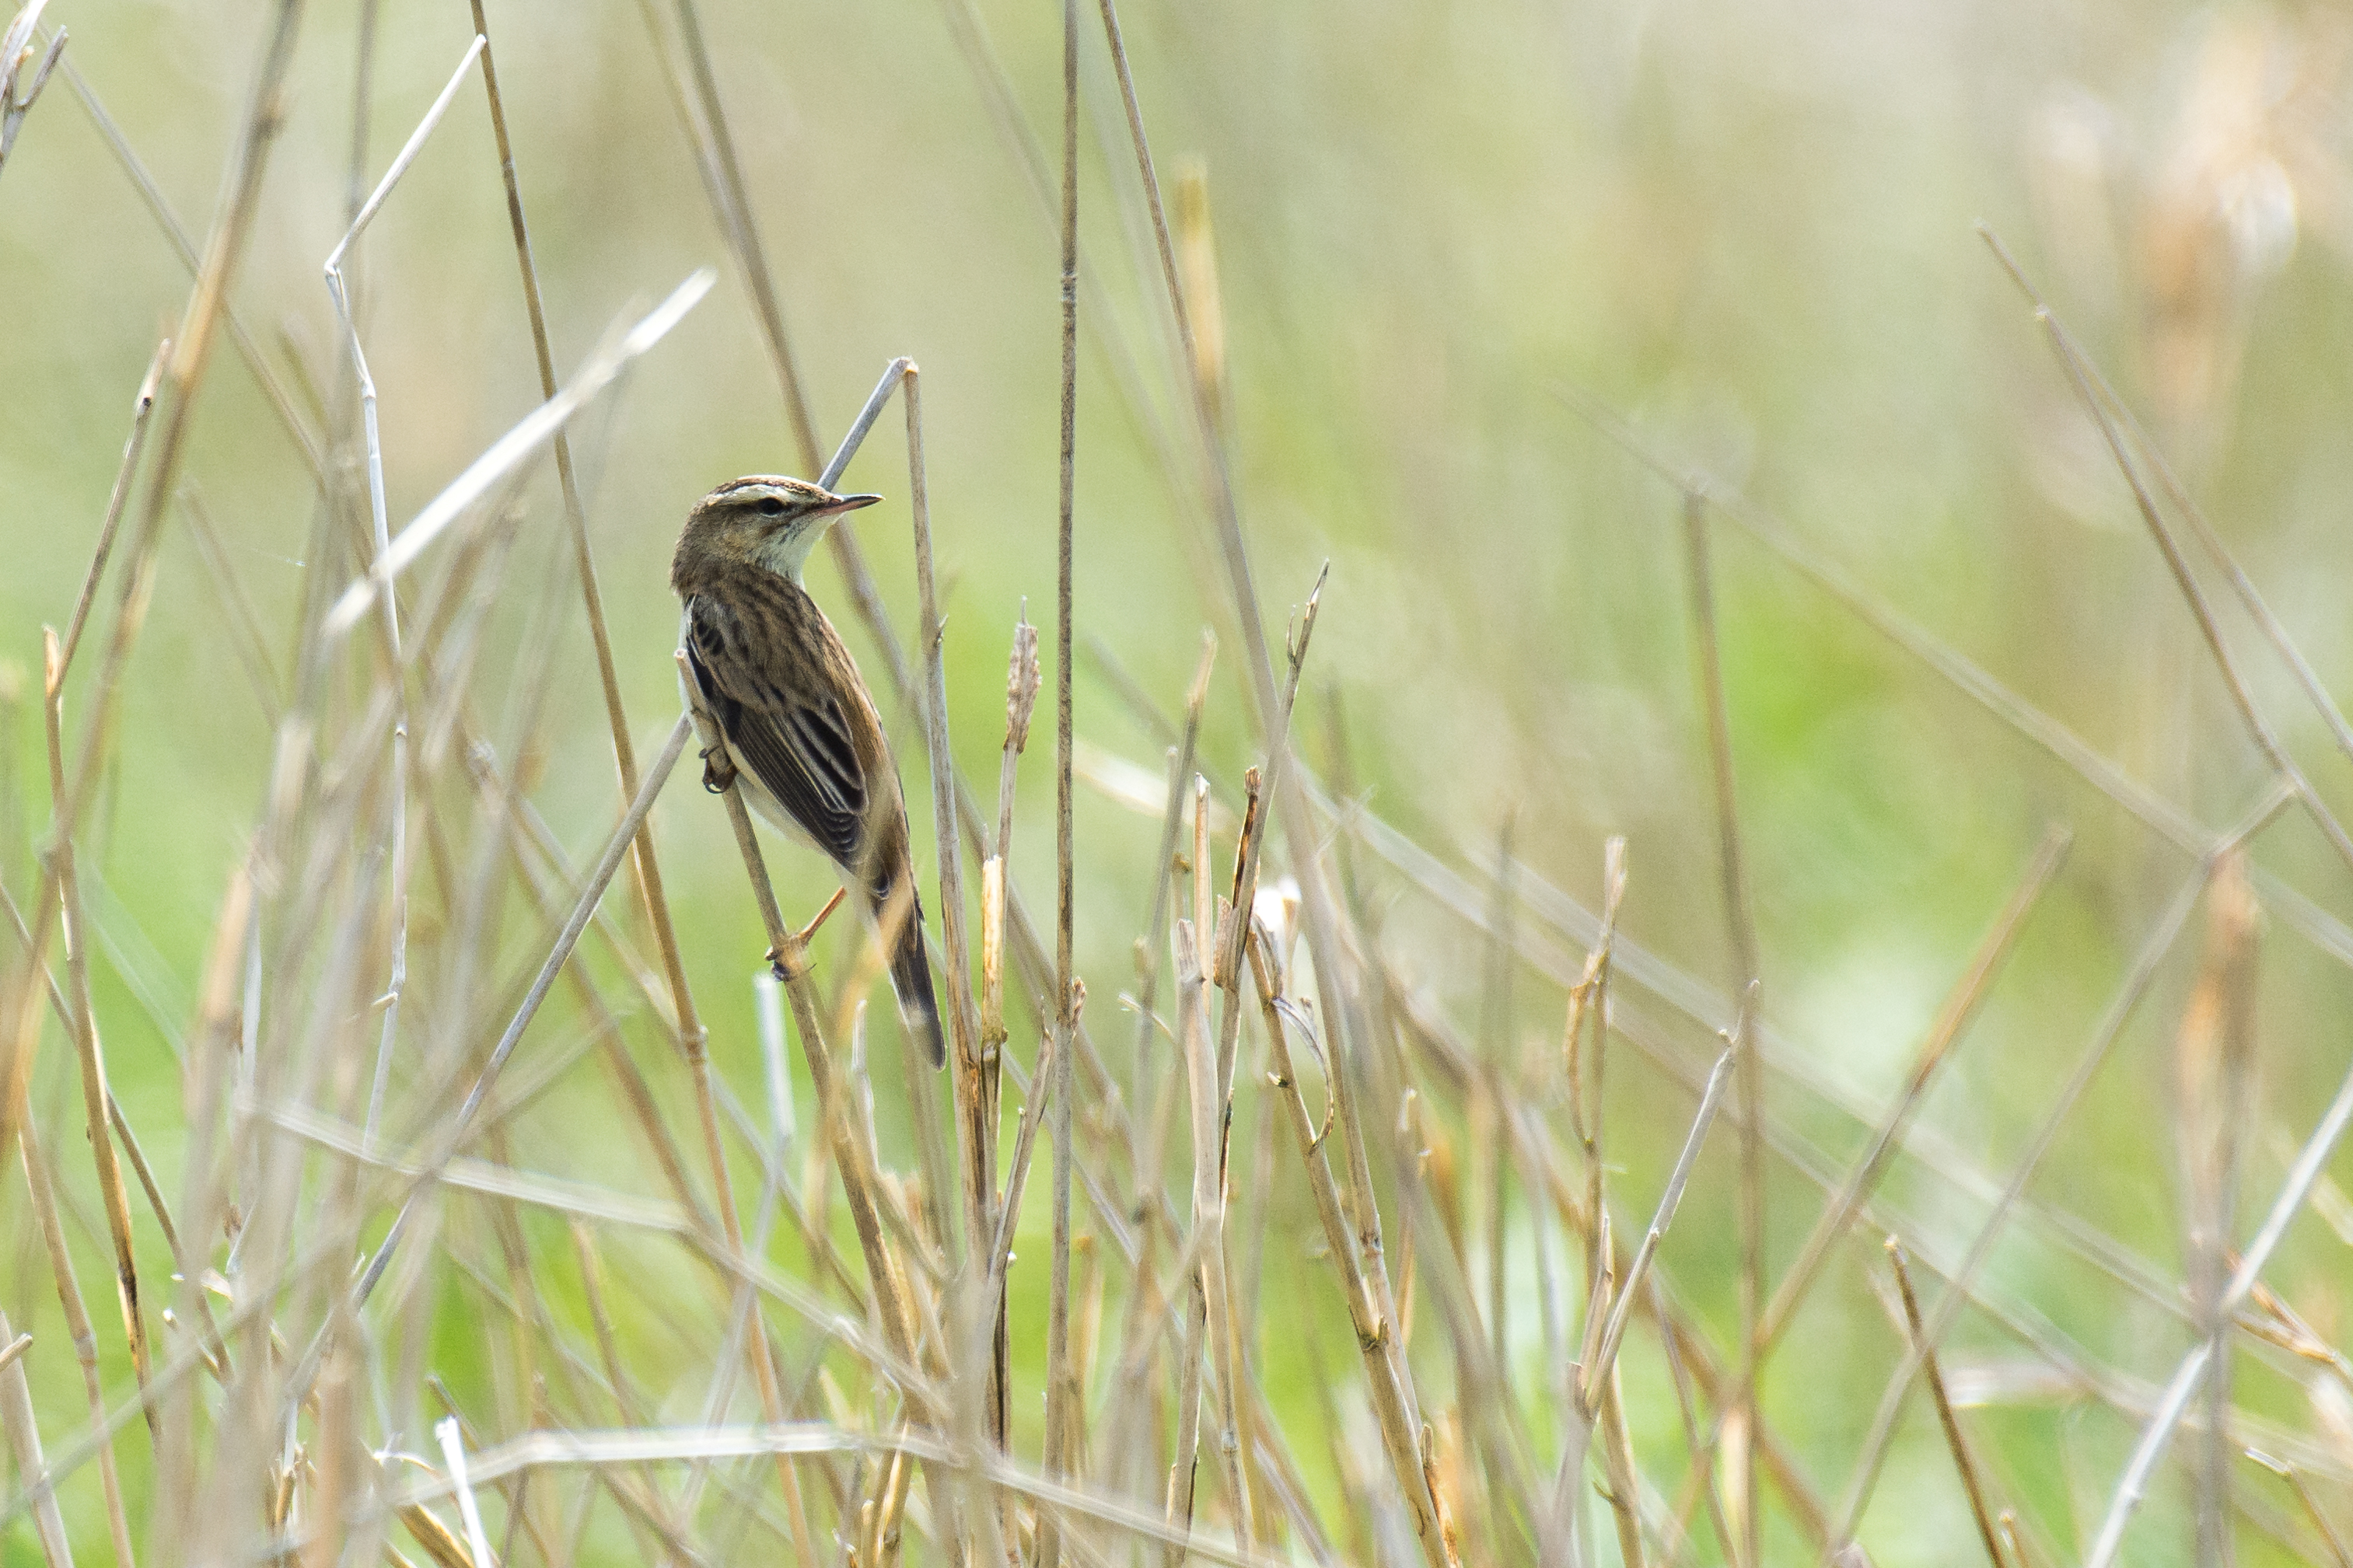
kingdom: Animalia
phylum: Chordata
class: Aves
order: Passeriformes
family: Acrocephalidae
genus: Acrocephalus
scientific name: Acrocephalus schoenobaenus
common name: Sivsanger
